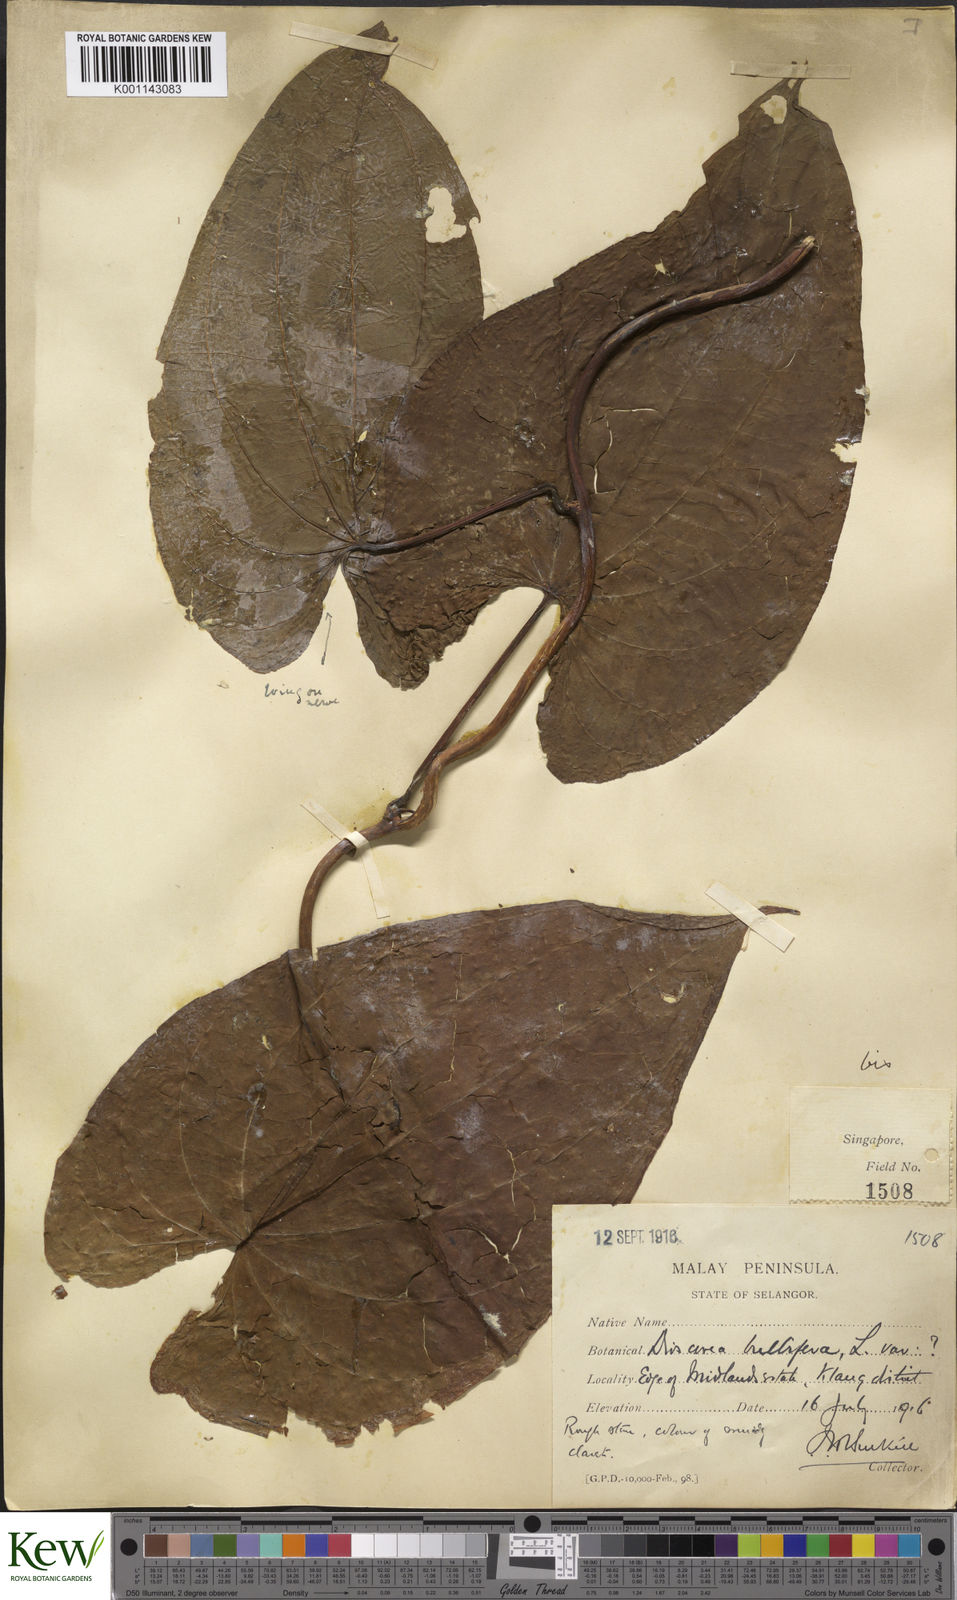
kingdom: Plantae
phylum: Tracheophyta
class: Liliopsida
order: Dioscoreales
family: Dioscoreaceae
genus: Dioscorea
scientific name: Dioscorea bulbifera
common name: Air yam
